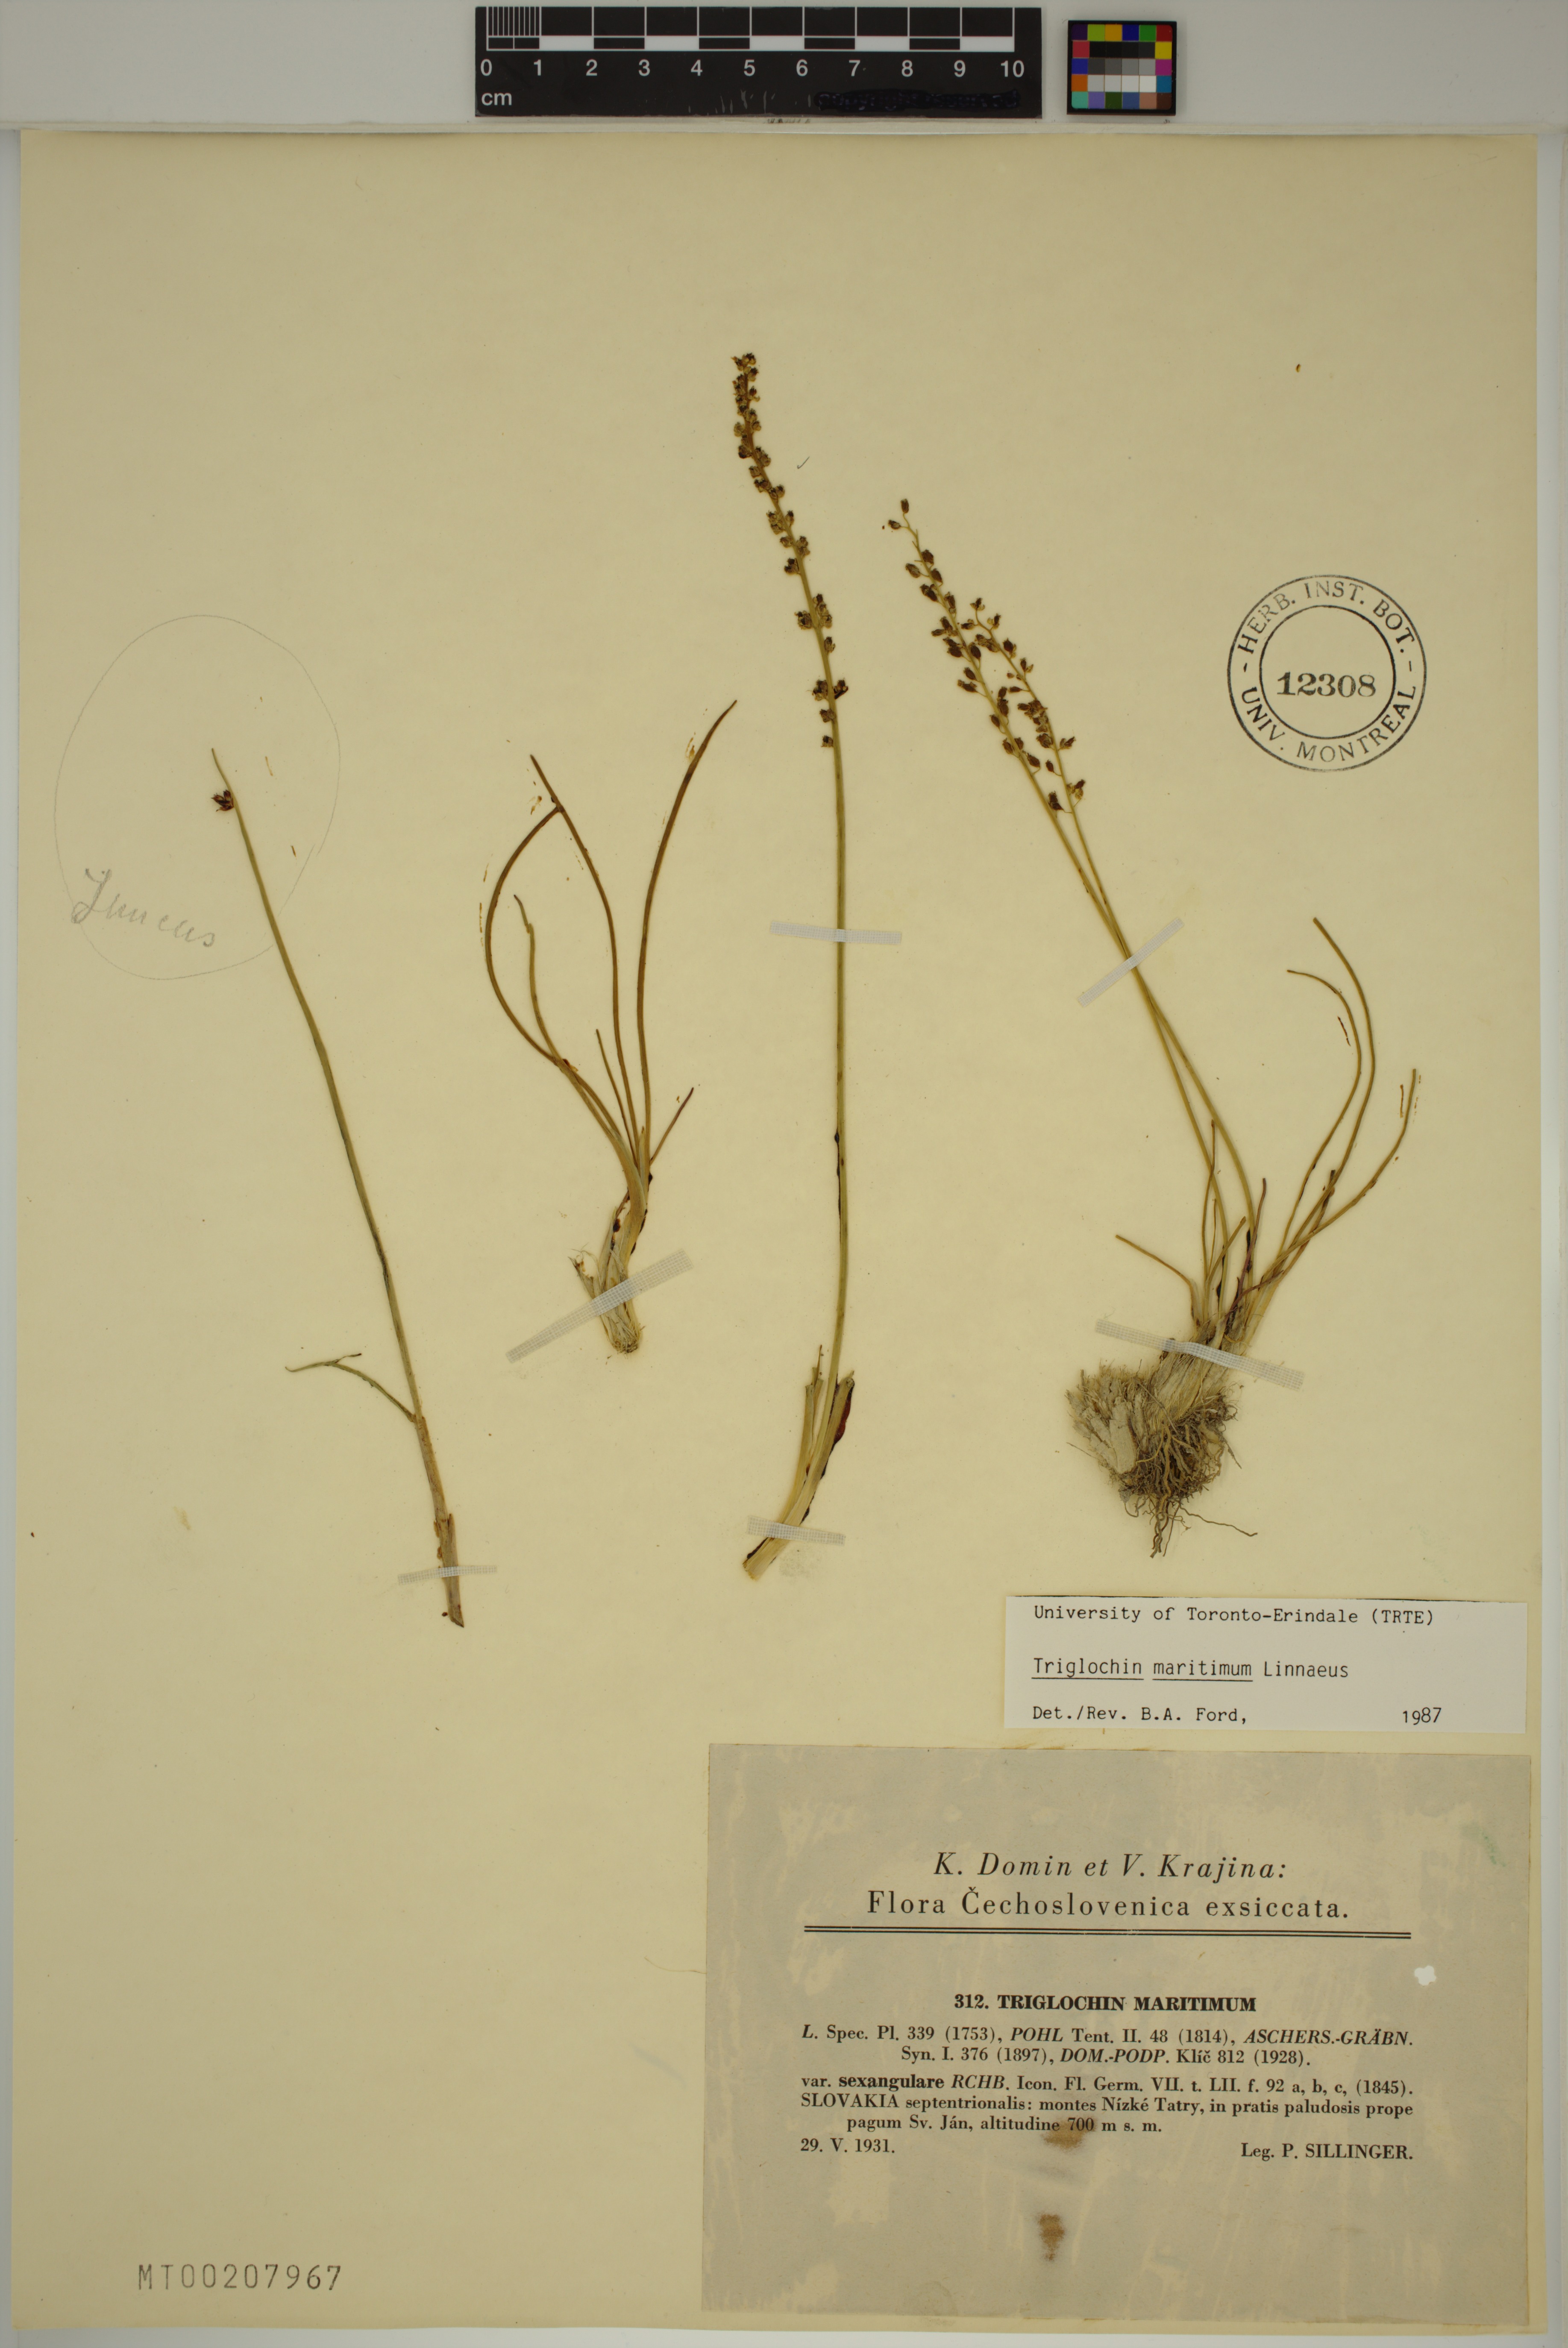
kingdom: Plantae
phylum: Tracheophyta
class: Liliopsida
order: Alismatales
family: Juncaginaceae
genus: Triglochin
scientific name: Triglochin maritima
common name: Sea arrowgrass
